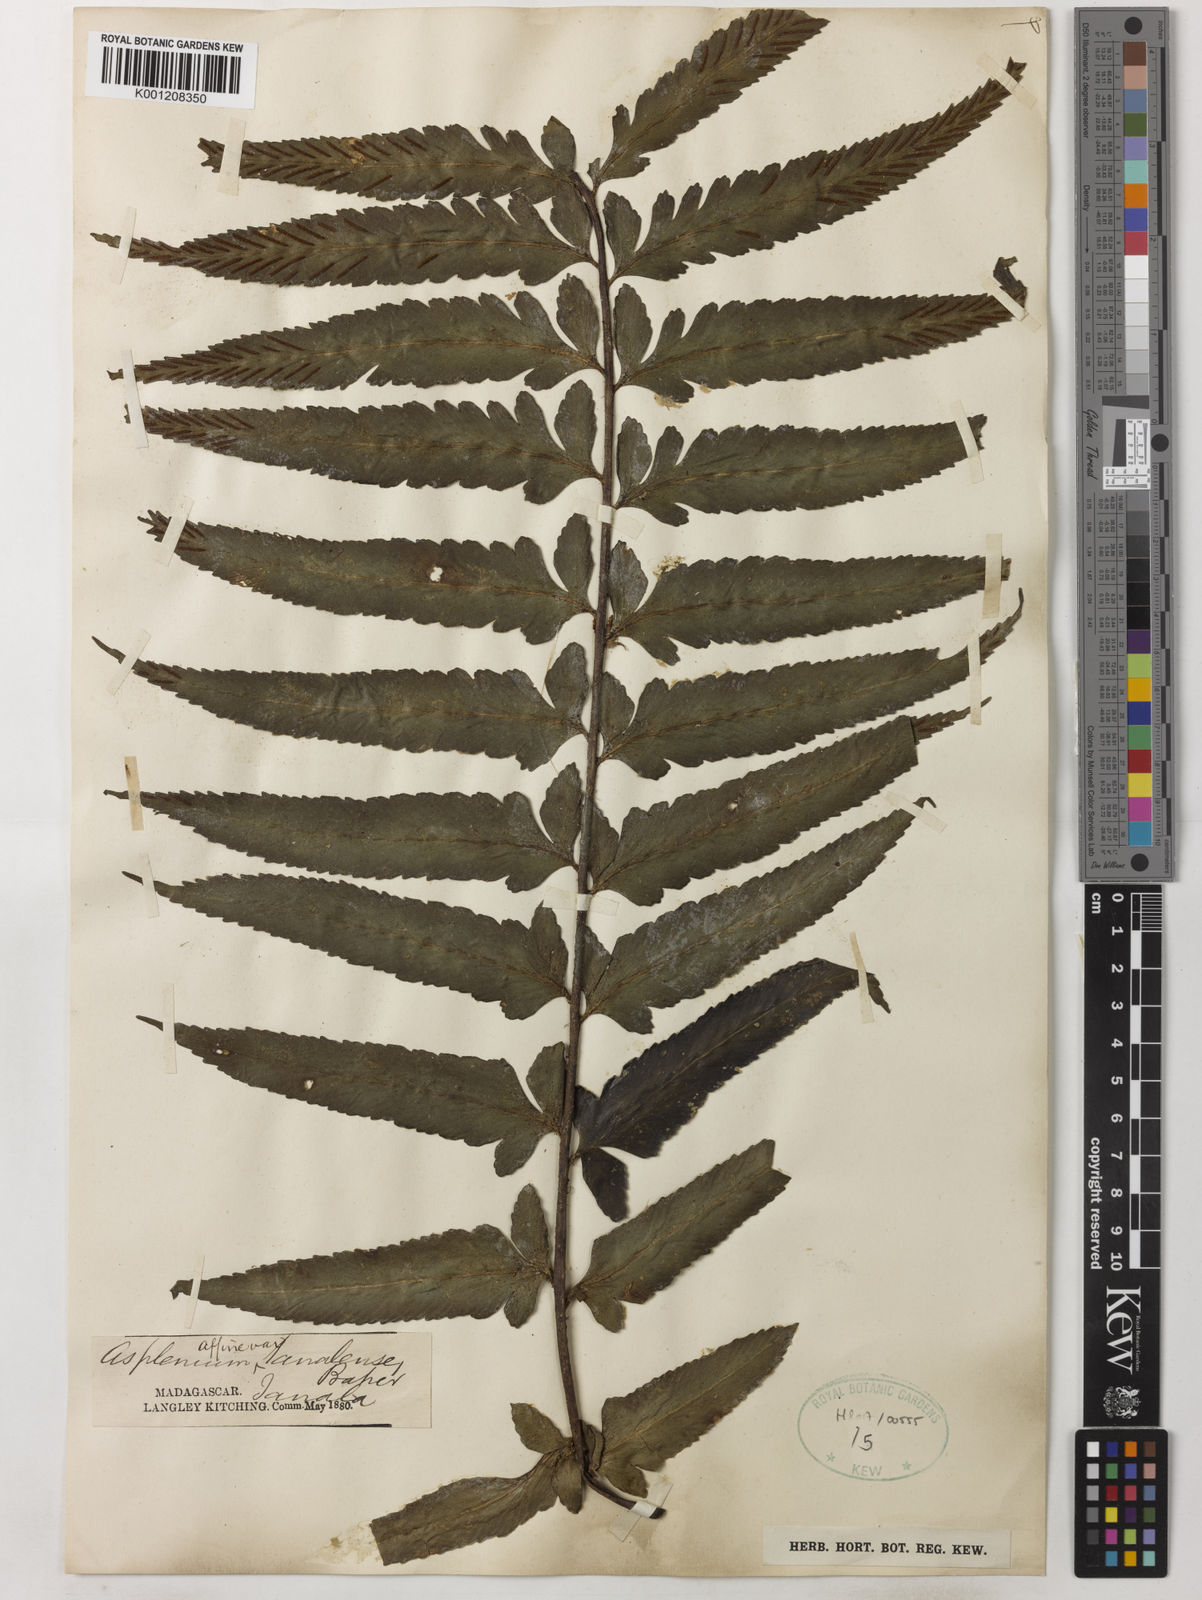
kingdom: Plantae
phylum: Tracheophyta
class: Polypodiopsida
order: Polypodiales
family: Aspleniaceae
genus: Asplenium
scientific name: Asplenium herpetopteris
